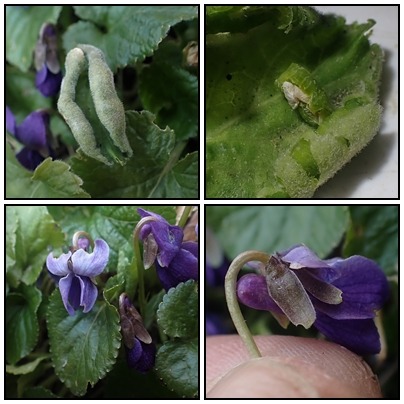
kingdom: Animalia
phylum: Arthropoda
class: Insecta
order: Diptera
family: Cecidomyiidae
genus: Dasineura
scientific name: Dasineura odoratae
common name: Martsviolgalmyg
